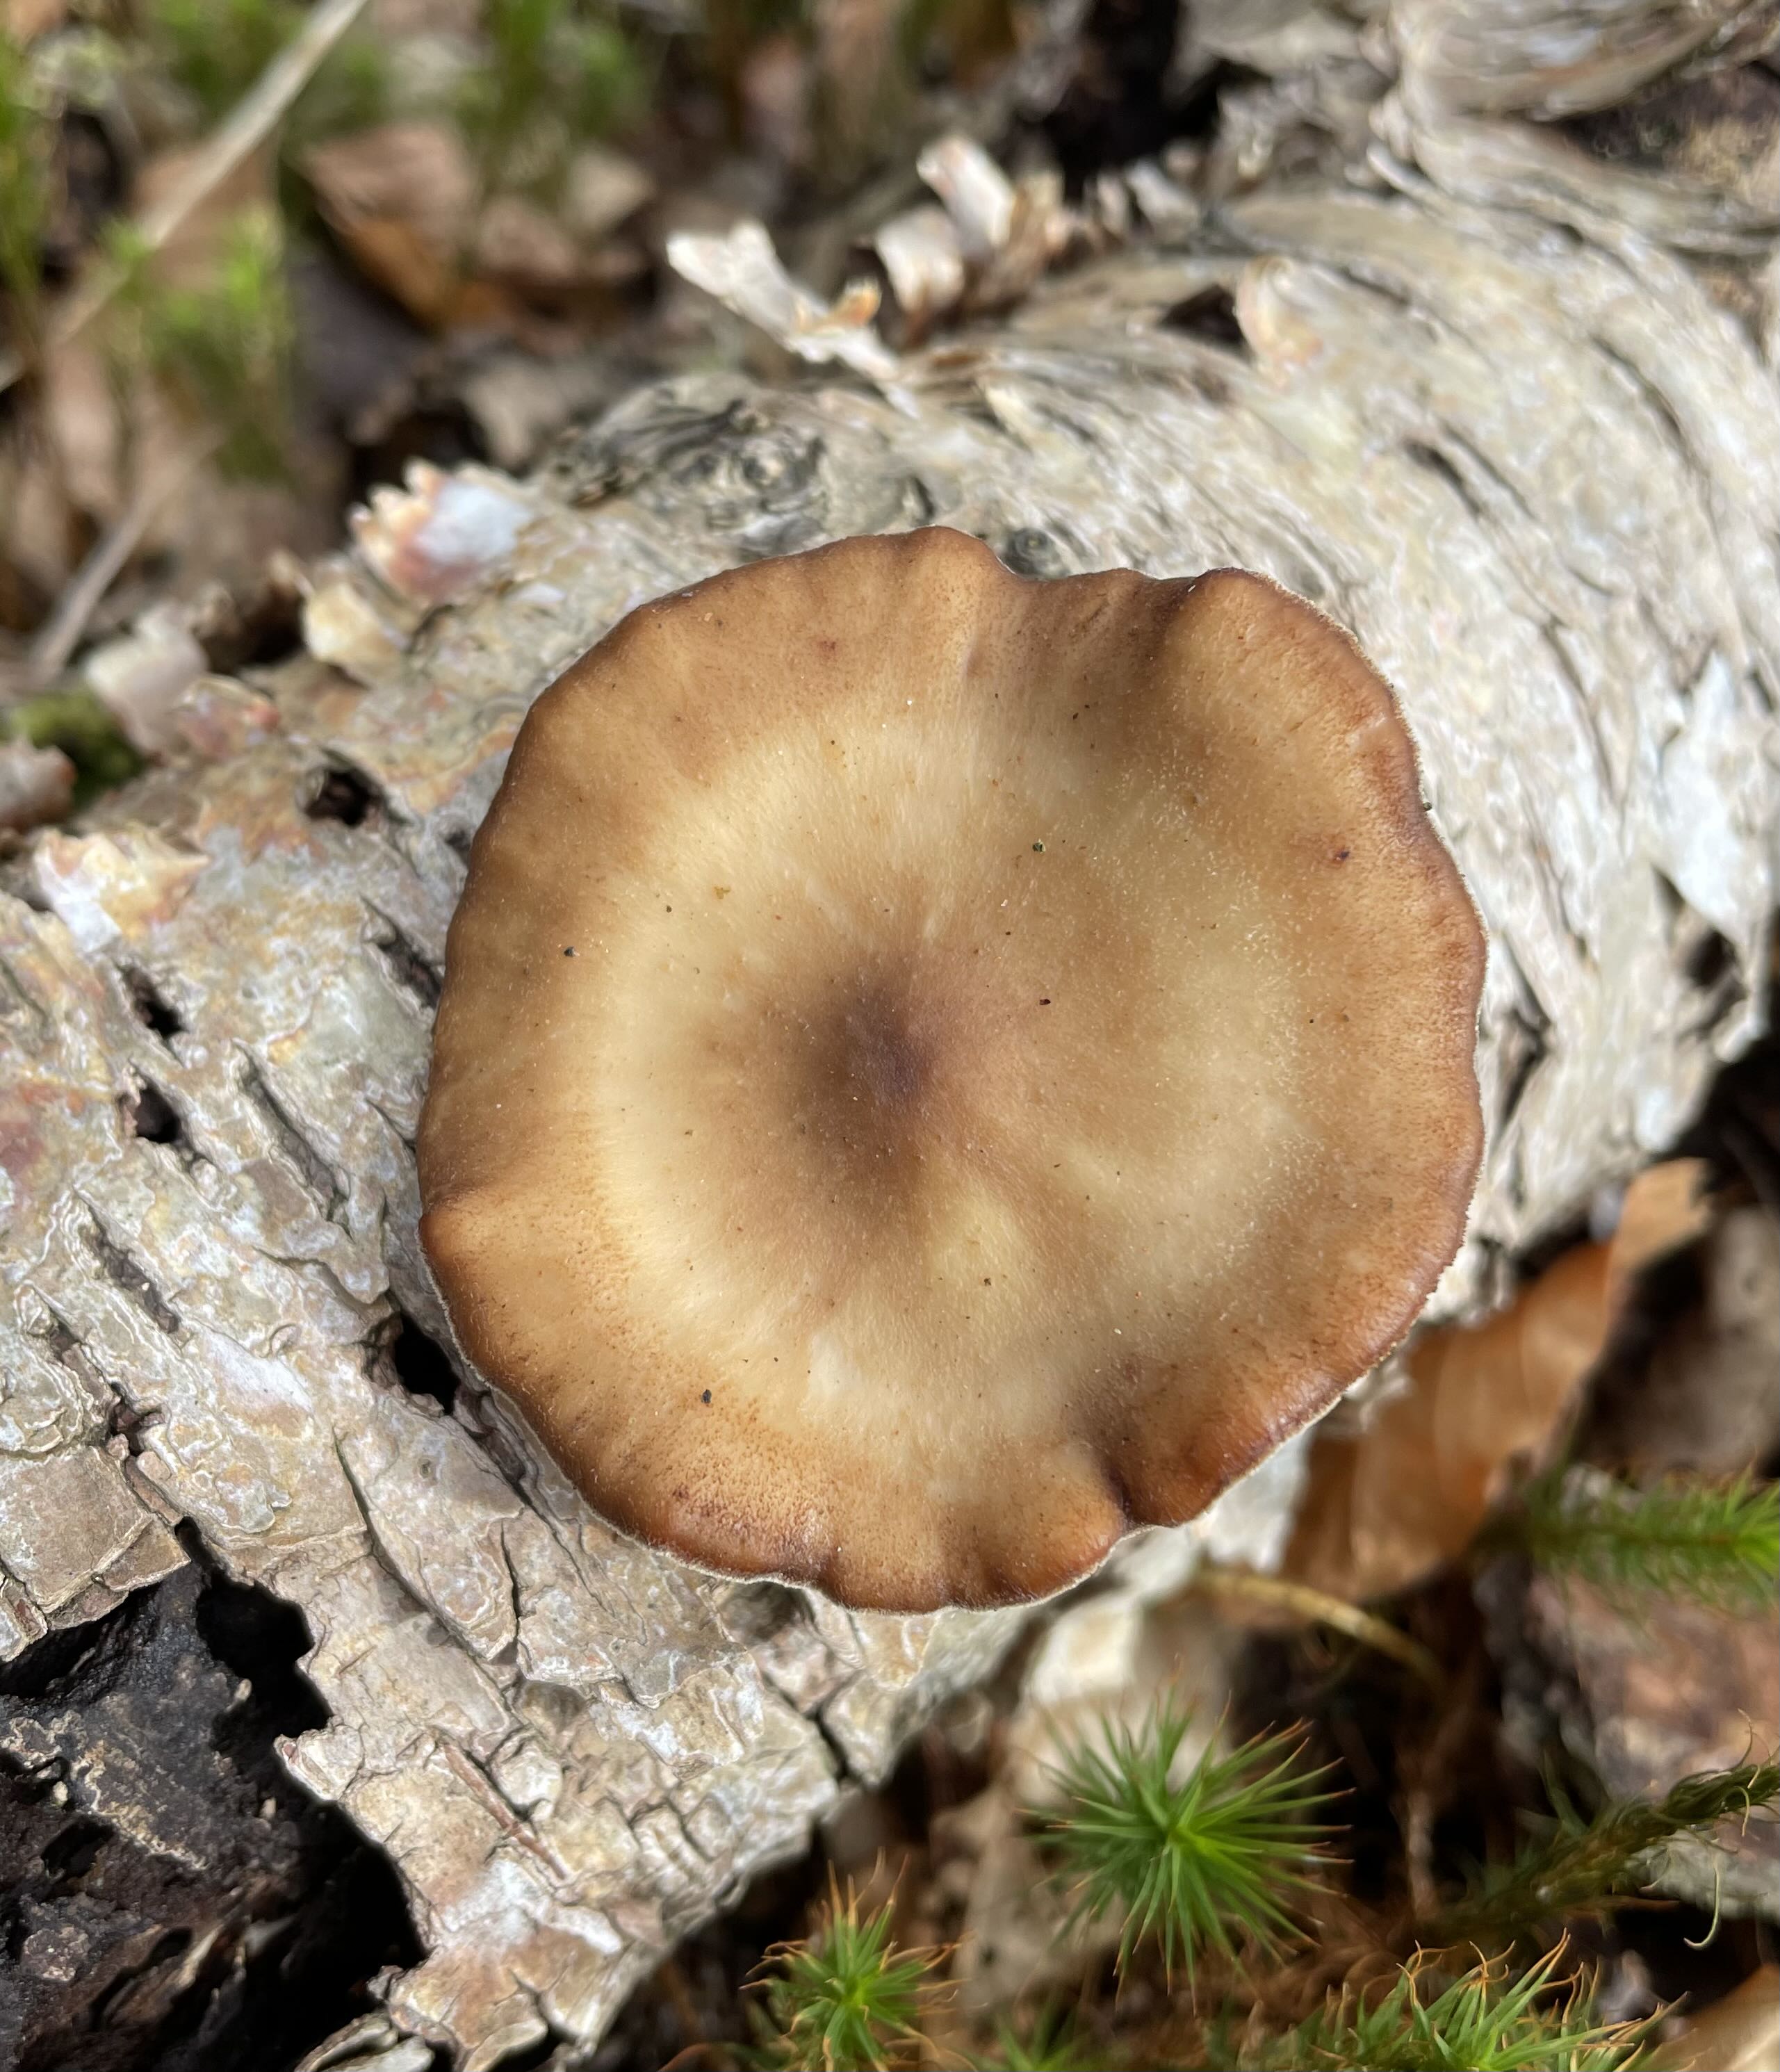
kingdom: Fungi
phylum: Basidiomycota
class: Agaricomycetes
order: Polyporales
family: Polyporaceae
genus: Lentinus
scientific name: Lentinus brumalis
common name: vinter-stilkporesvamp
